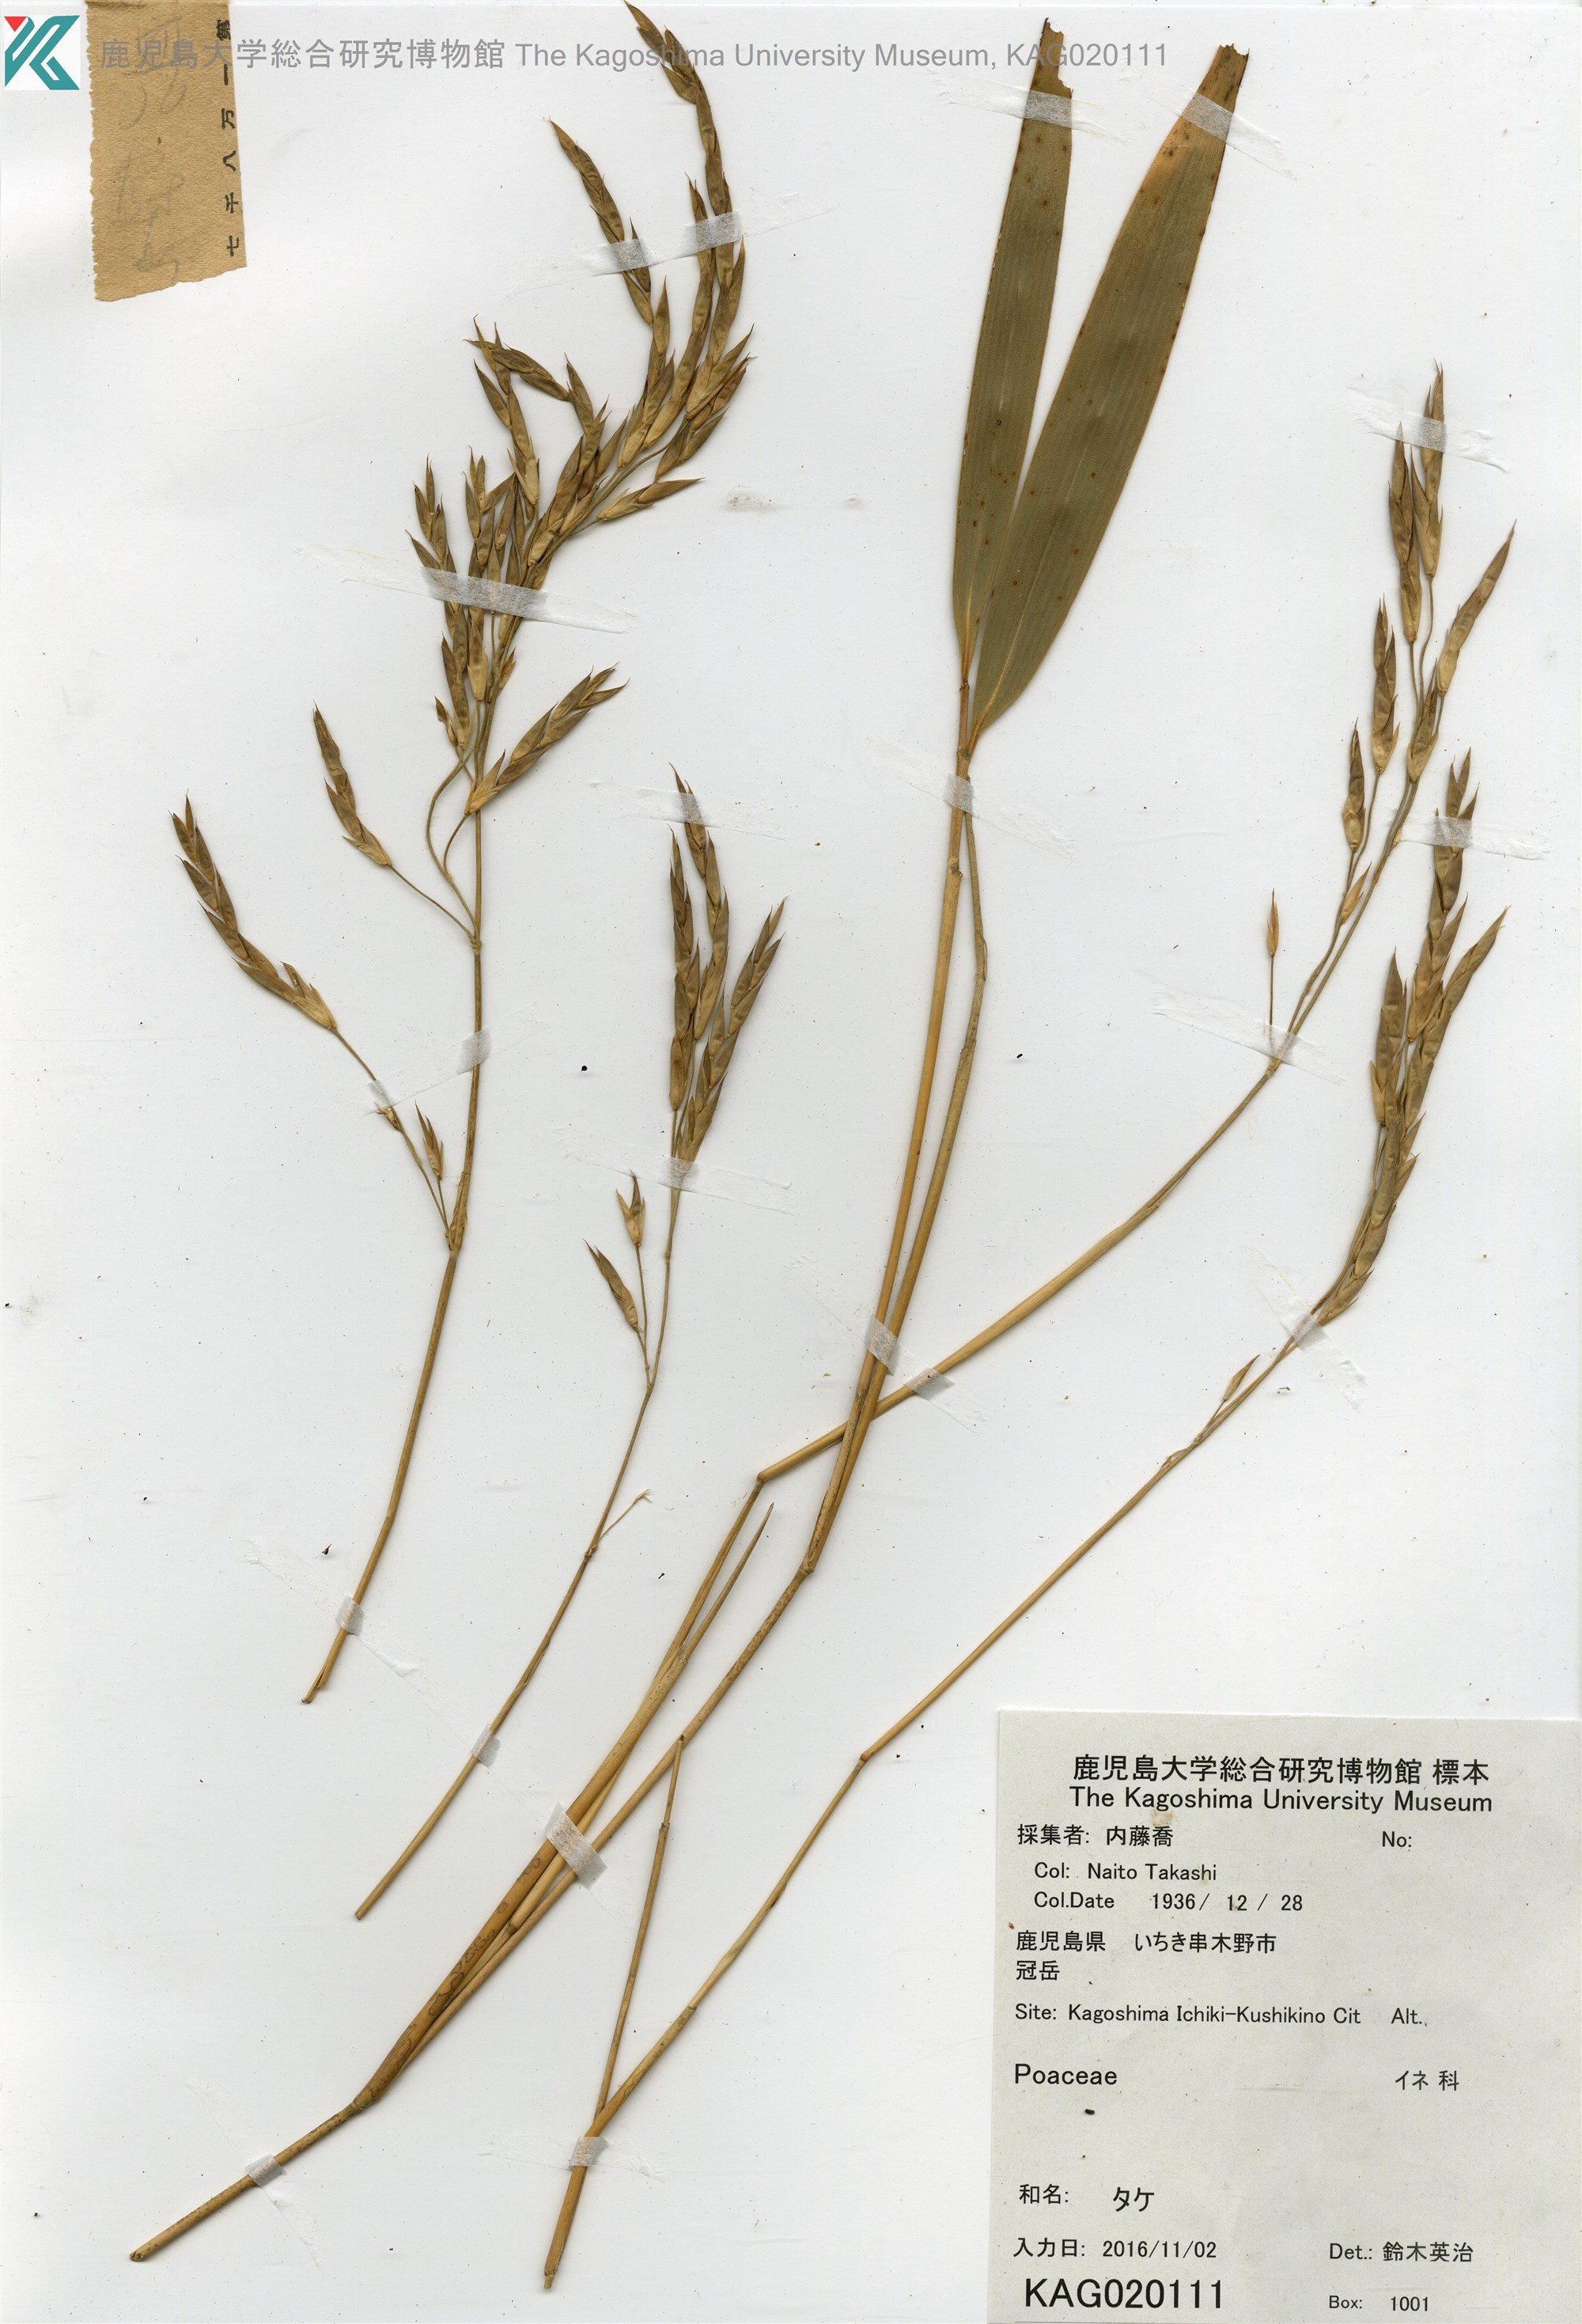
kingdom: Plantae
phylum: Tracheophyta
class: Liliopsida
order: Poales
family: Poaceae
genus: Bambusa
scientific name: Bambusa
